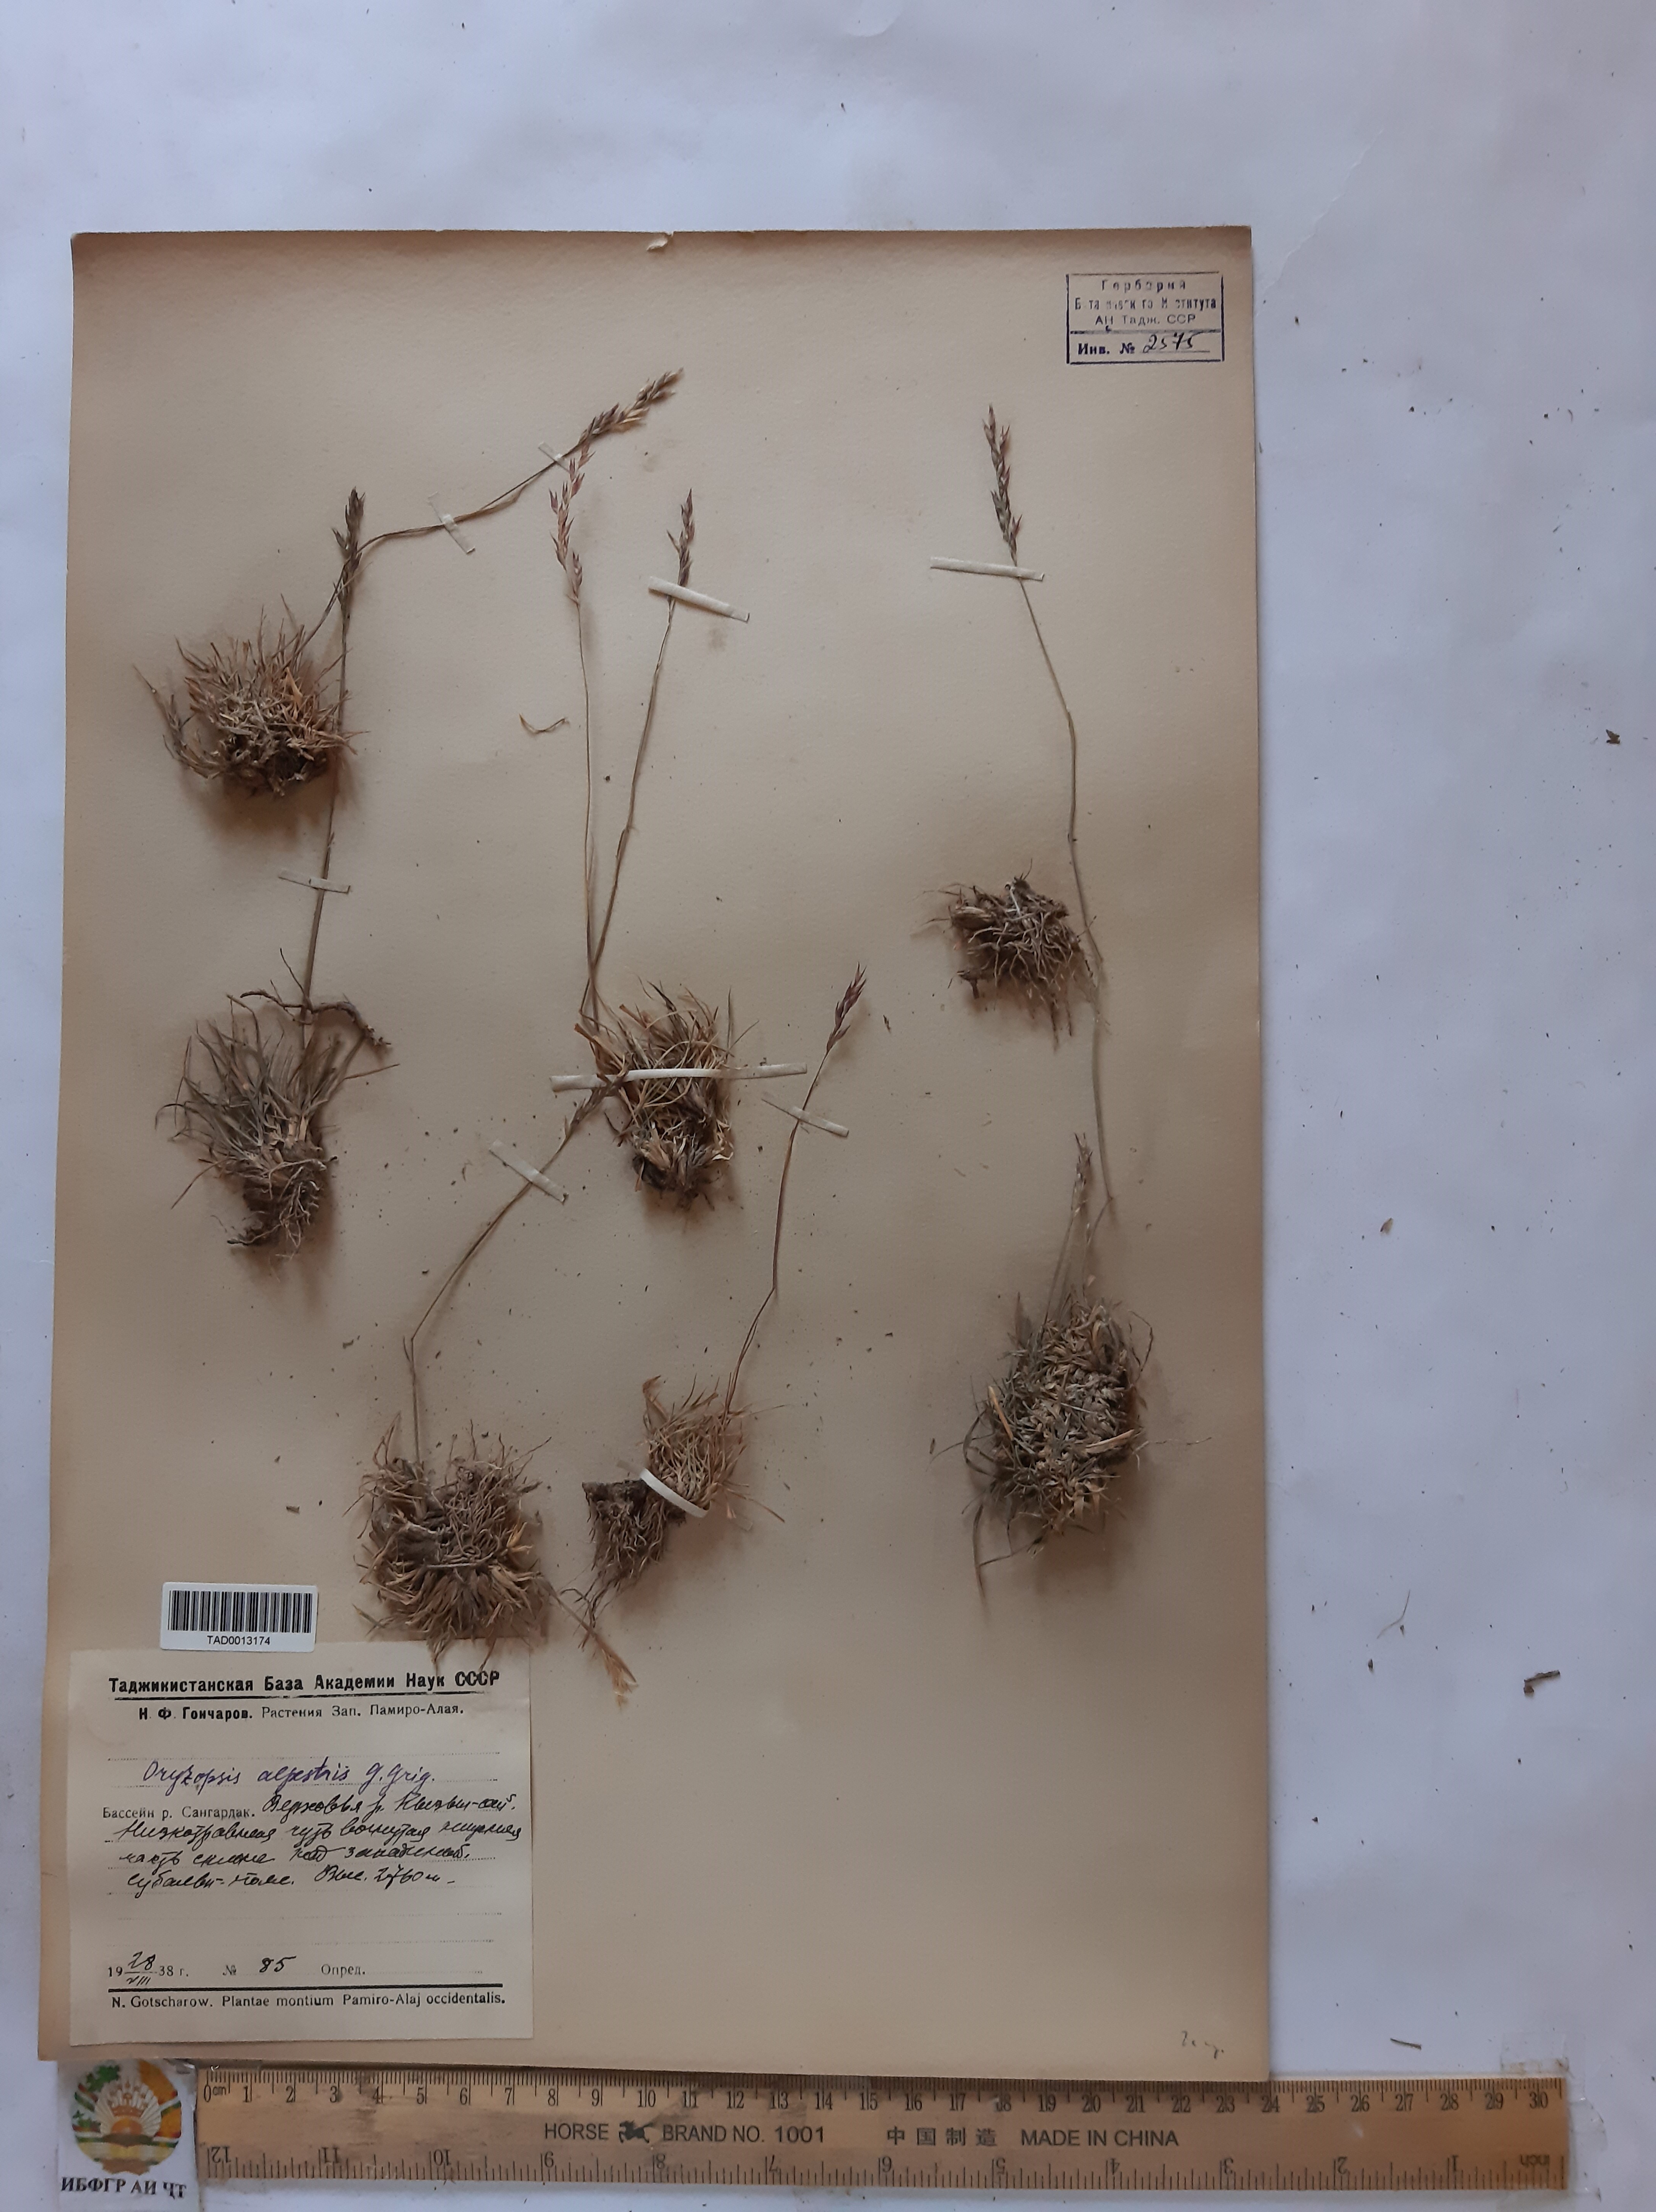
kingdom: Plantae
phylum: Tracheophyta
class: Liliopsida
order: Poales
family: Poaceae
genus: Piptatherum
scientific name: Piptatherum alpestre
